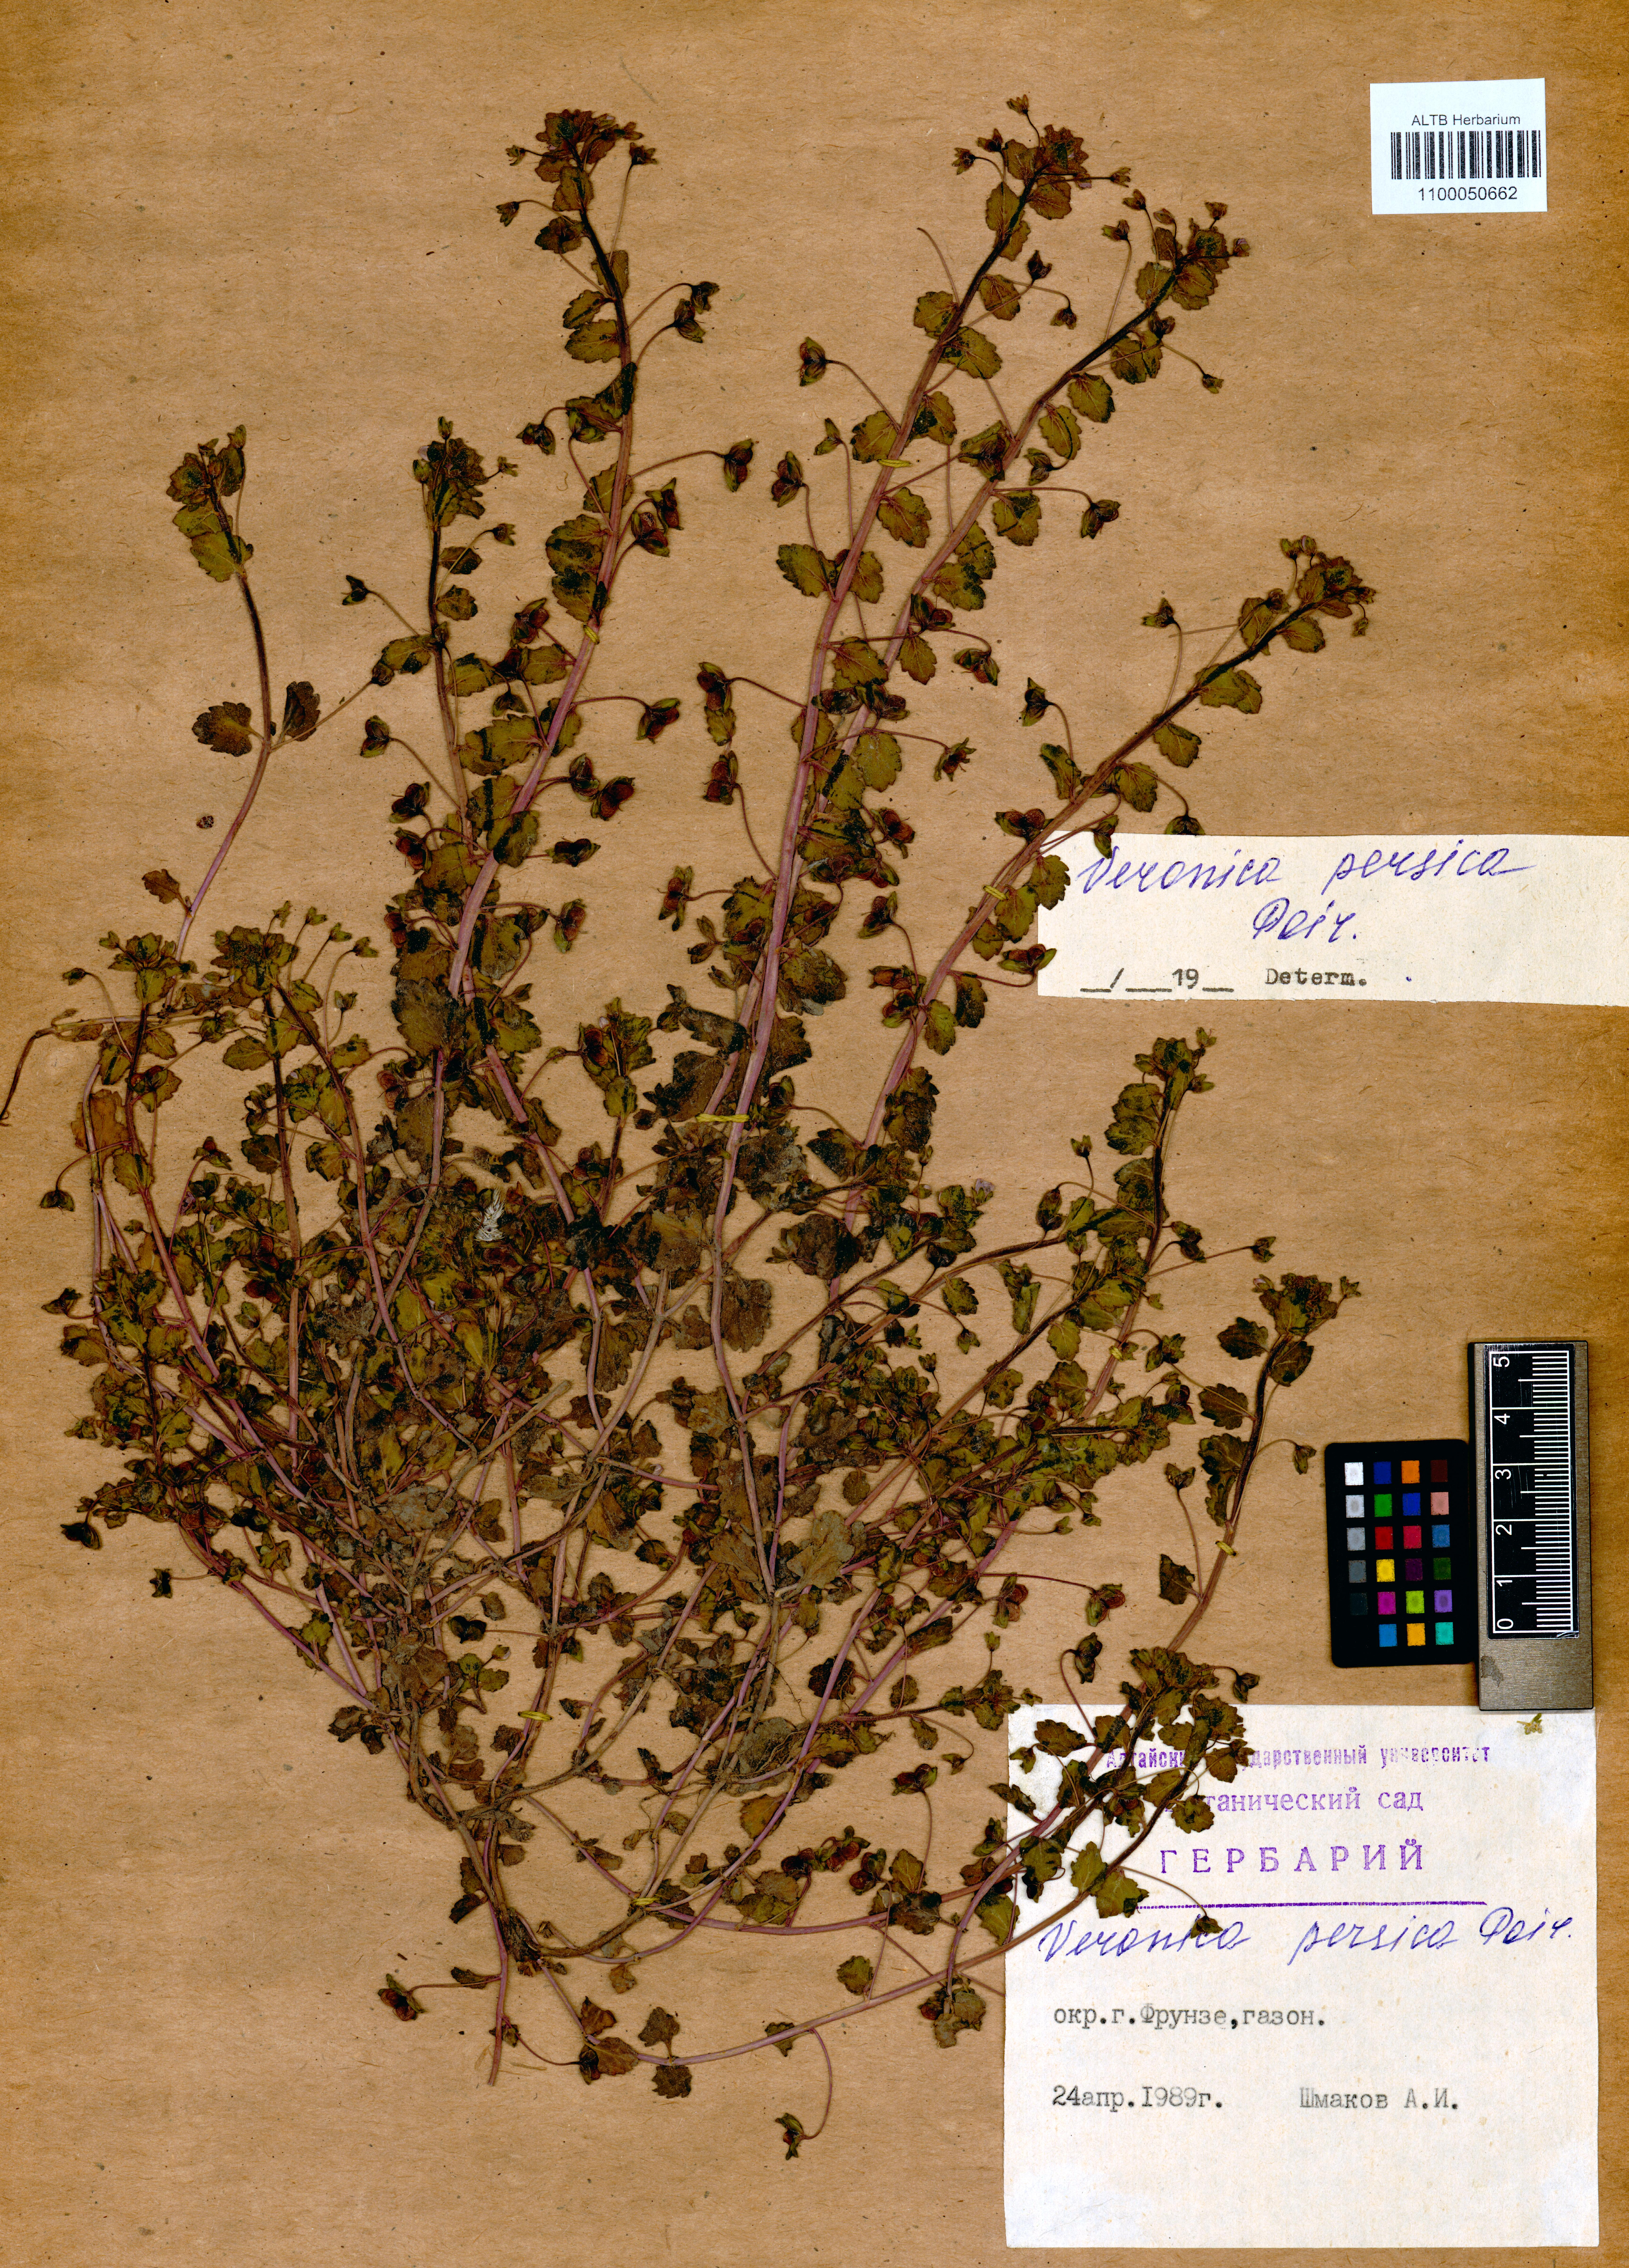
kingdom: Plantae
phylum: Tracheophyta
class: Magnoliopsida
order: Lamiales
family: Plantaginaceae
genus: Veronica
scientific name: Veronica persica
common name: Common field-speedwell
